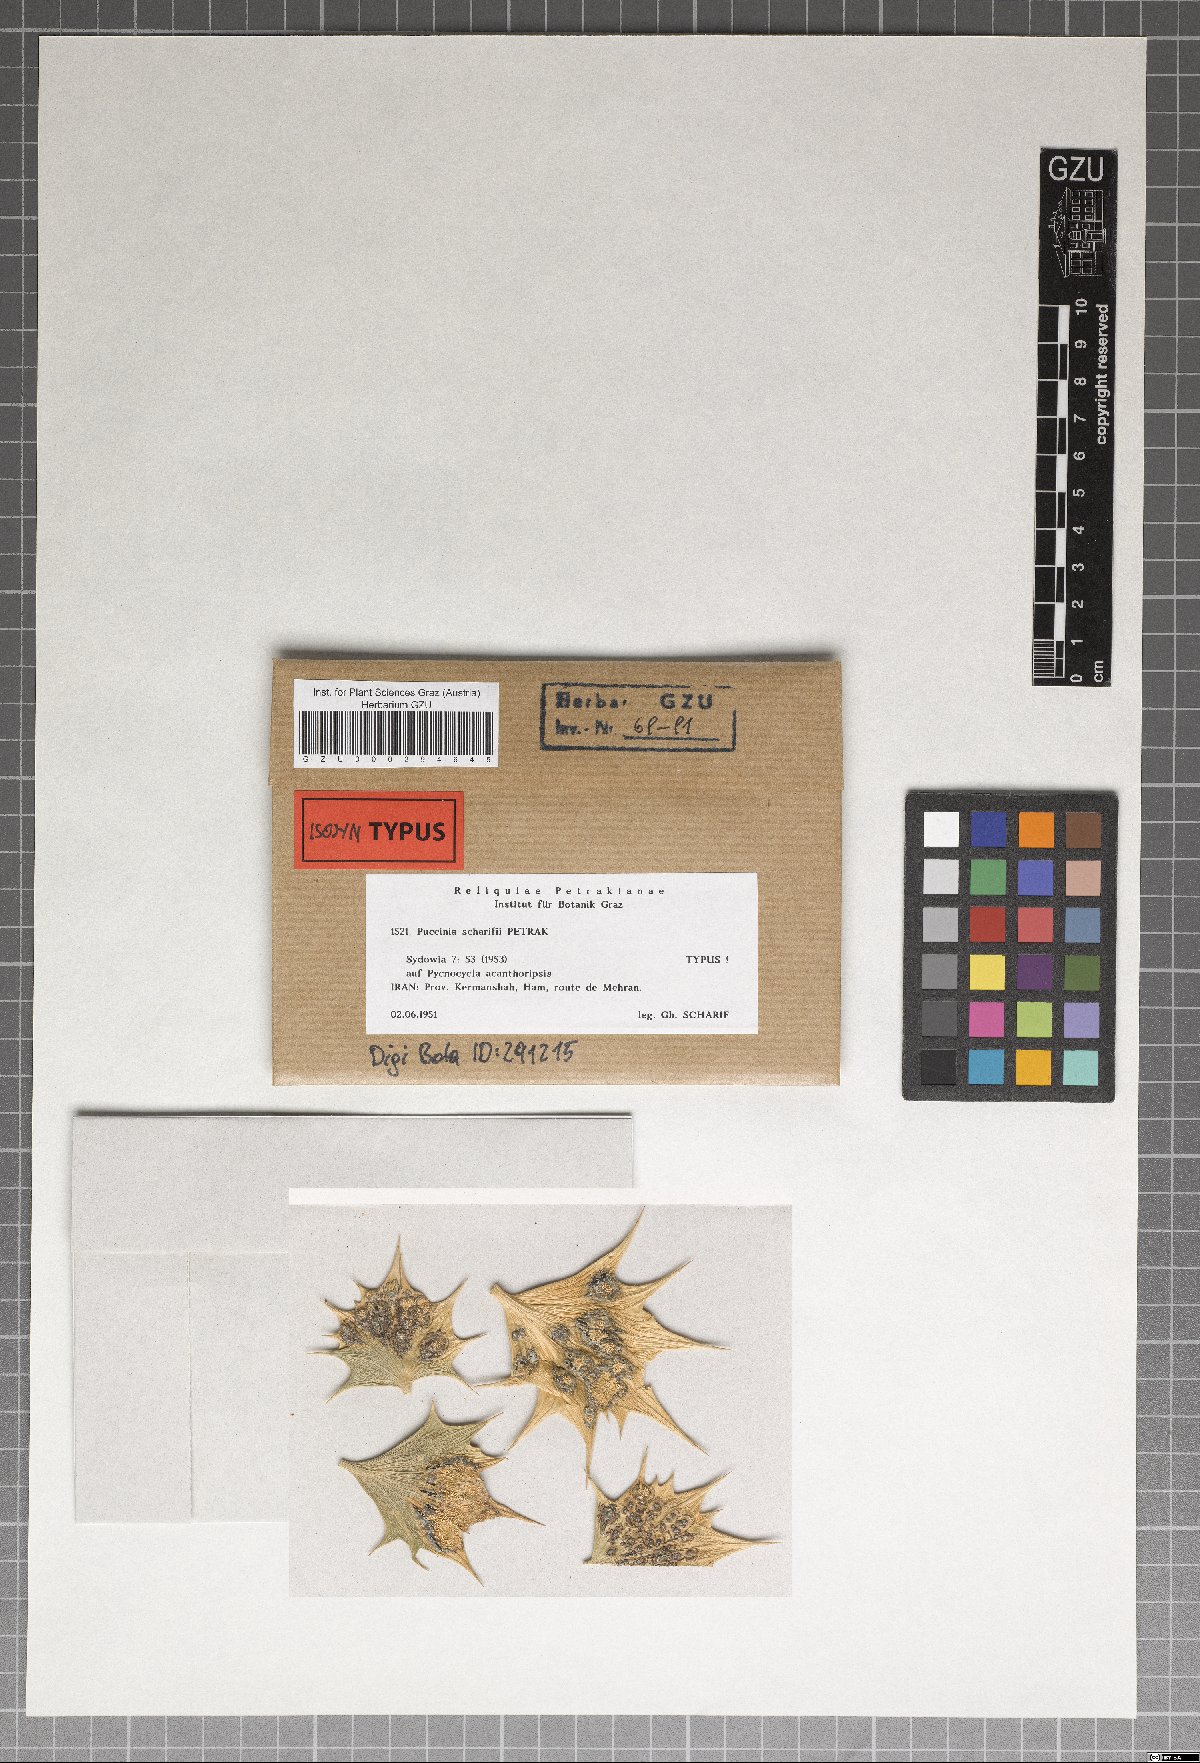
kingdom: Fungi
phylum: Basidiomycota
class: Pucciniomycetes
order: Pucciniales
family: Pucciniaceae
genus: Puccinia
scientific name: Puccinia scharifii
